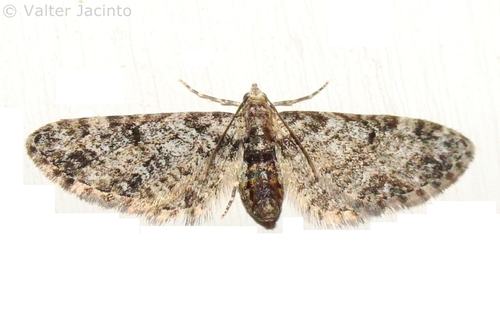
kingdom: Animalia
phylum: Arthropoda
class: Insecta
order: Lepidoptera
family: Geometridae
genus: Eupithecia
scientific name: Eupithecia irriguata
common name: Marbled pug
